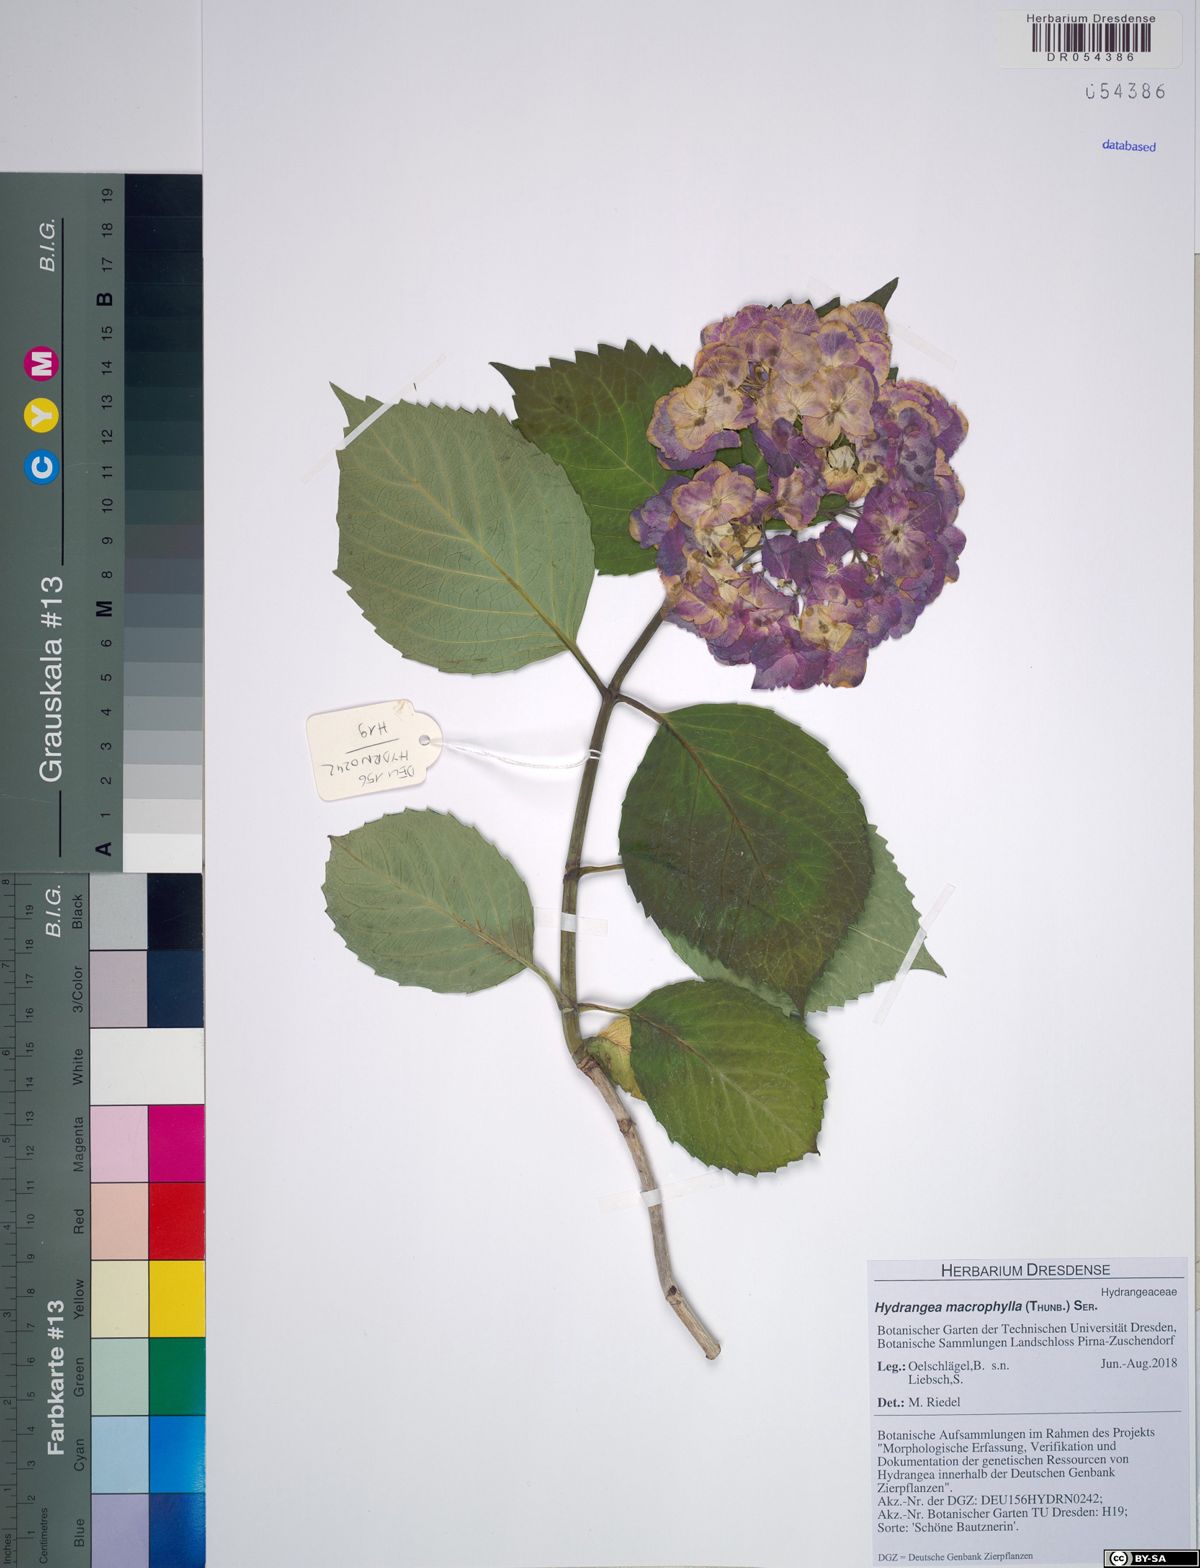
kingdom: Plantae
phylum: Tracheophyta
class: Magnoliopsida
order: Cornales
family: Hydrangeaceae
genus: Hydrangea
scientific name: Hydrangea macrophylla
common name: Hydrangea
